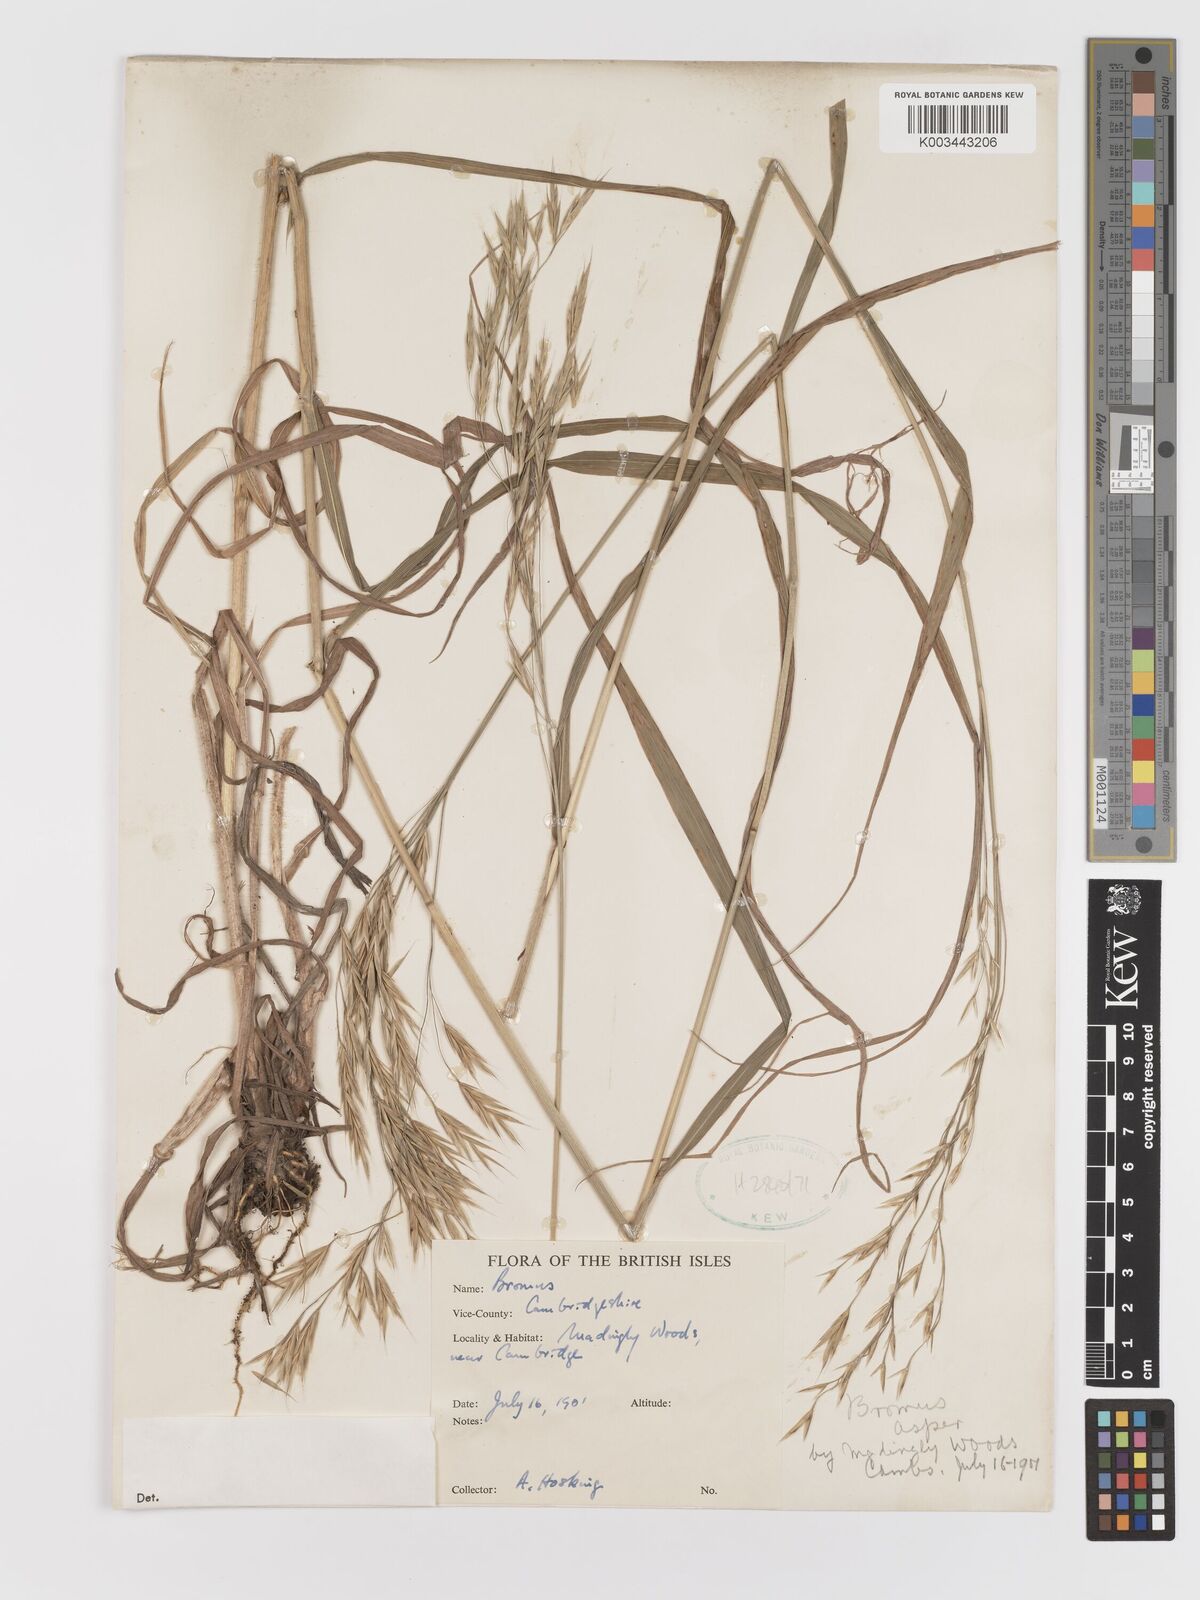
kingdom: Plantae
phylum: Tracheophyta
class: Liliopsida
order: Poales
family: Poaceae
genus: Bromus
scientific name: Bromus
